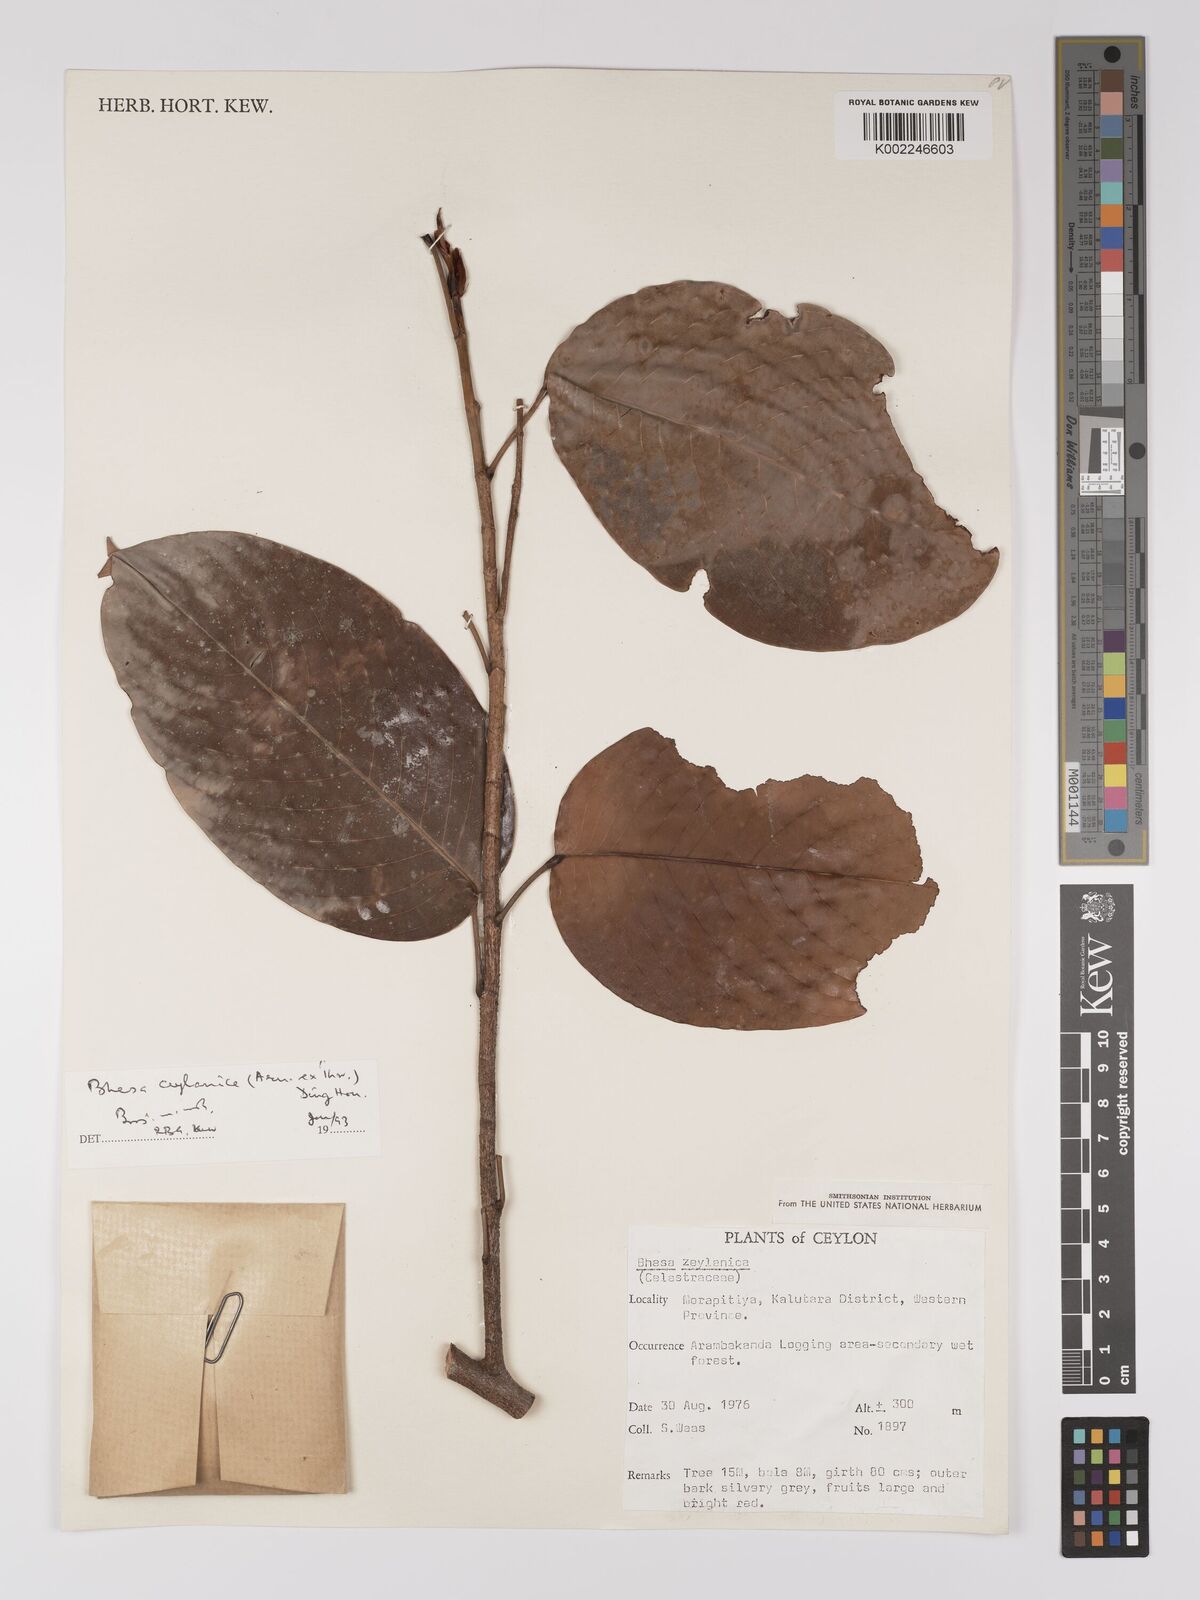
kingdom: Plantae
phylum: Tracheophyta
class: Magnoliopsida
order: Malpighiales
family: Centroplacaceae
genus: Bhesa
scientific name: Bhesa ceylanica
